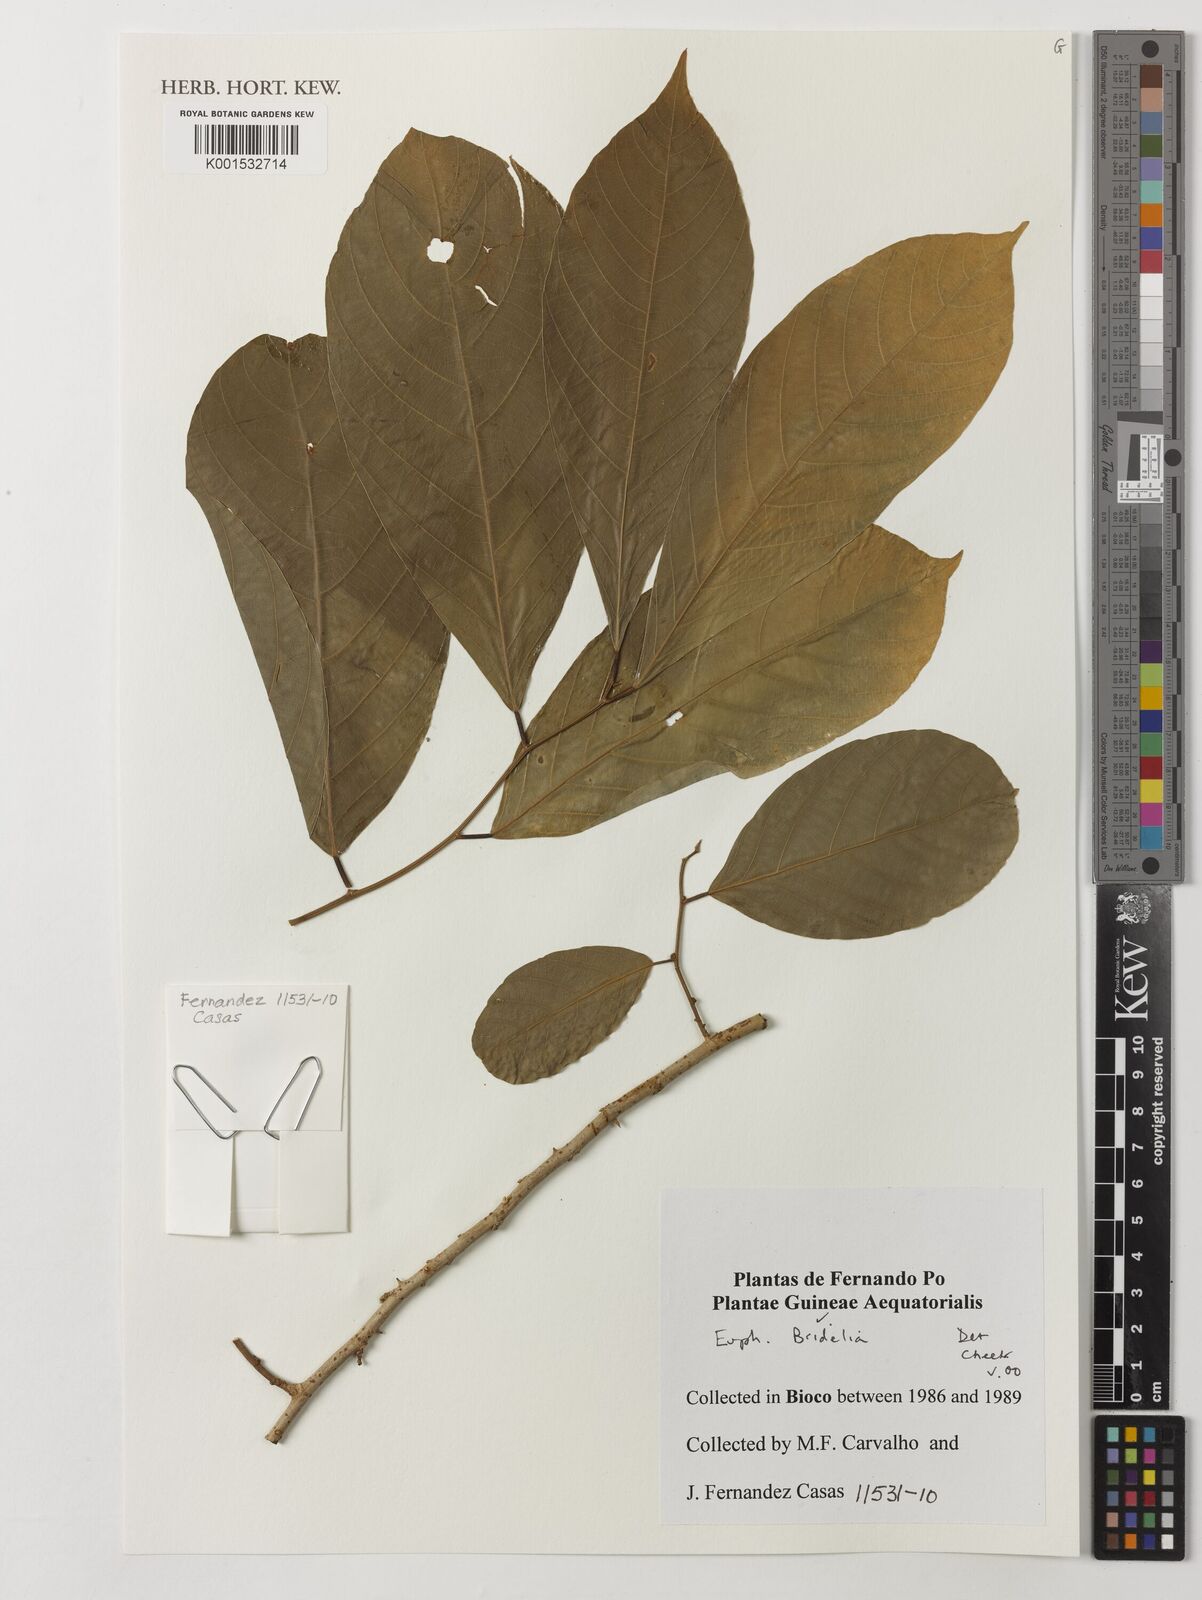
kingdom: Plantae
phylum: Tracheophyta
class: Magnoliopsida
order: Malpighiales
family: Phyllanthaceae
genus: Bridelia
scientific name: Bridelia
